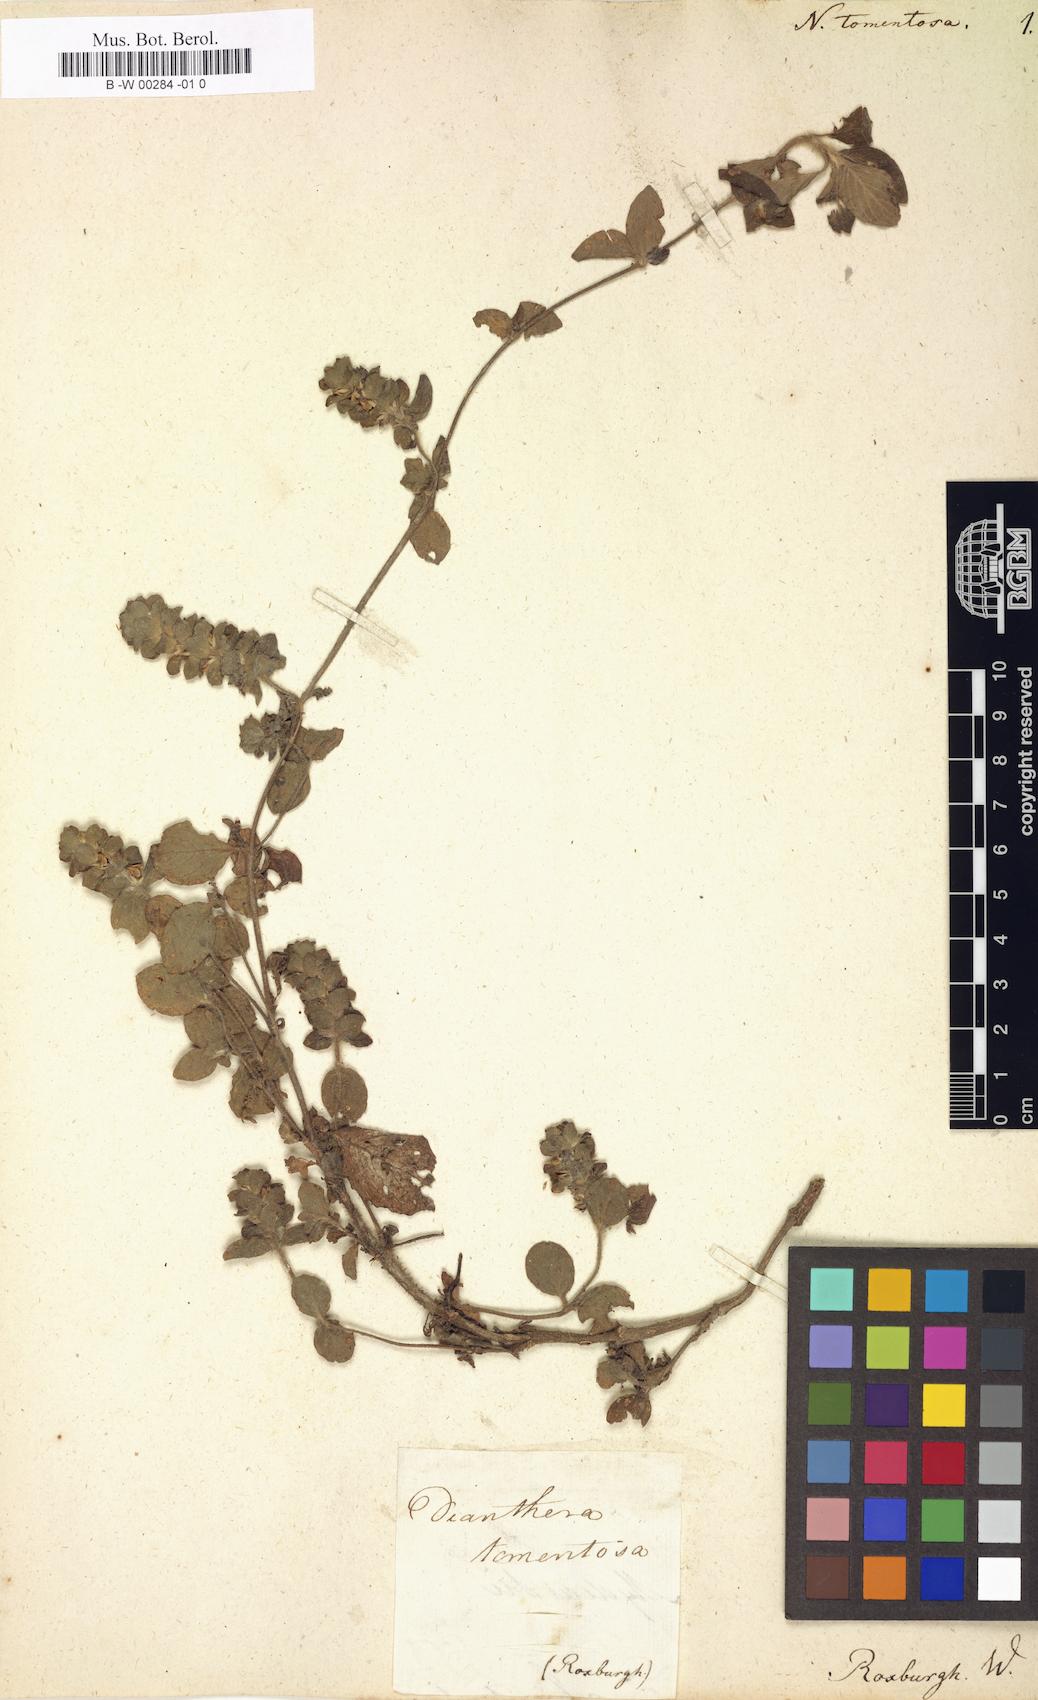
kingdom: Plantae
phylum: Tracheophyta
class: Magnoliopsida
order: Lamiales
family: Acanthaceae
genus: Nelsonia
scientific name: Nelsonia canescens
